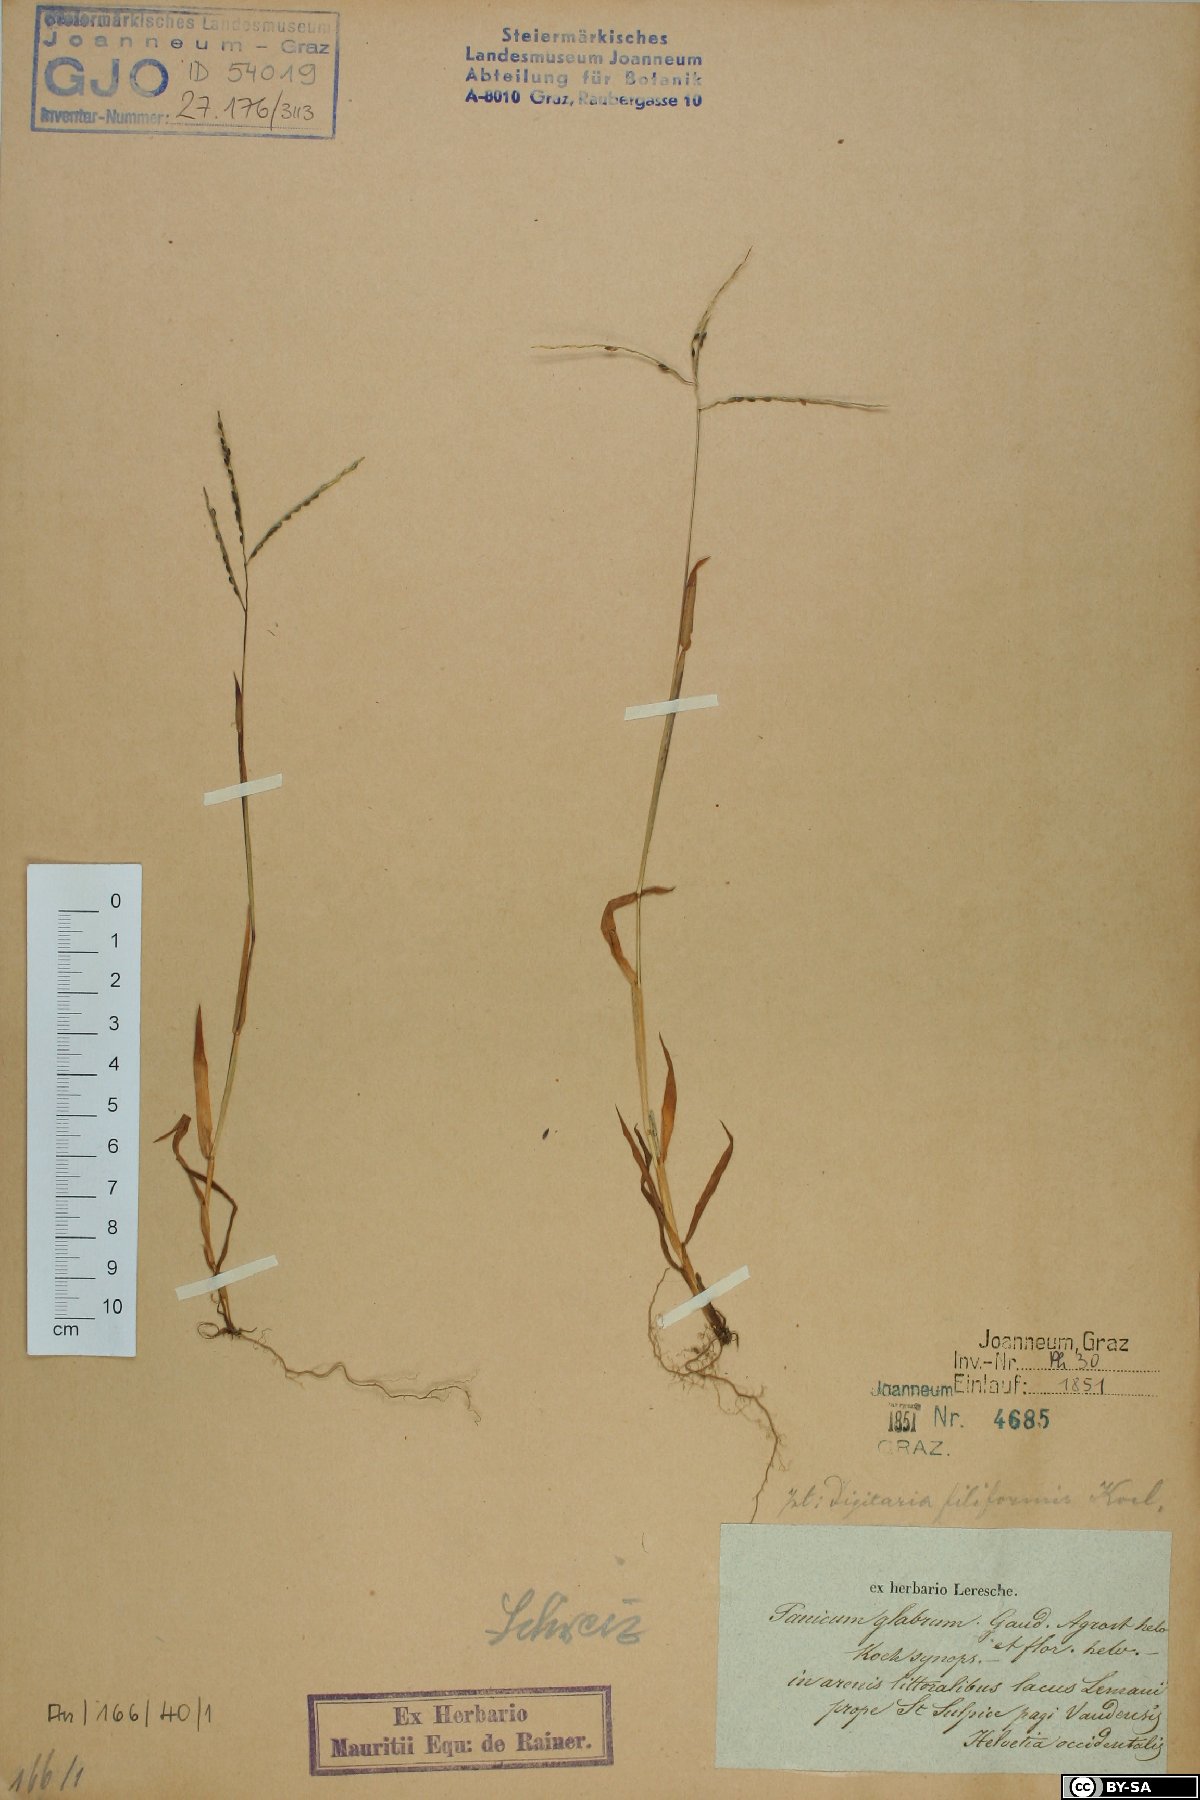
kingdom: Plantae
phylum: Tracheophyta
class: Liliopsida
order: Poales
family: Poaceae
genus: Digitaria
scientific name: Digitaria ischaemum
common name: Smooth crabgrass
